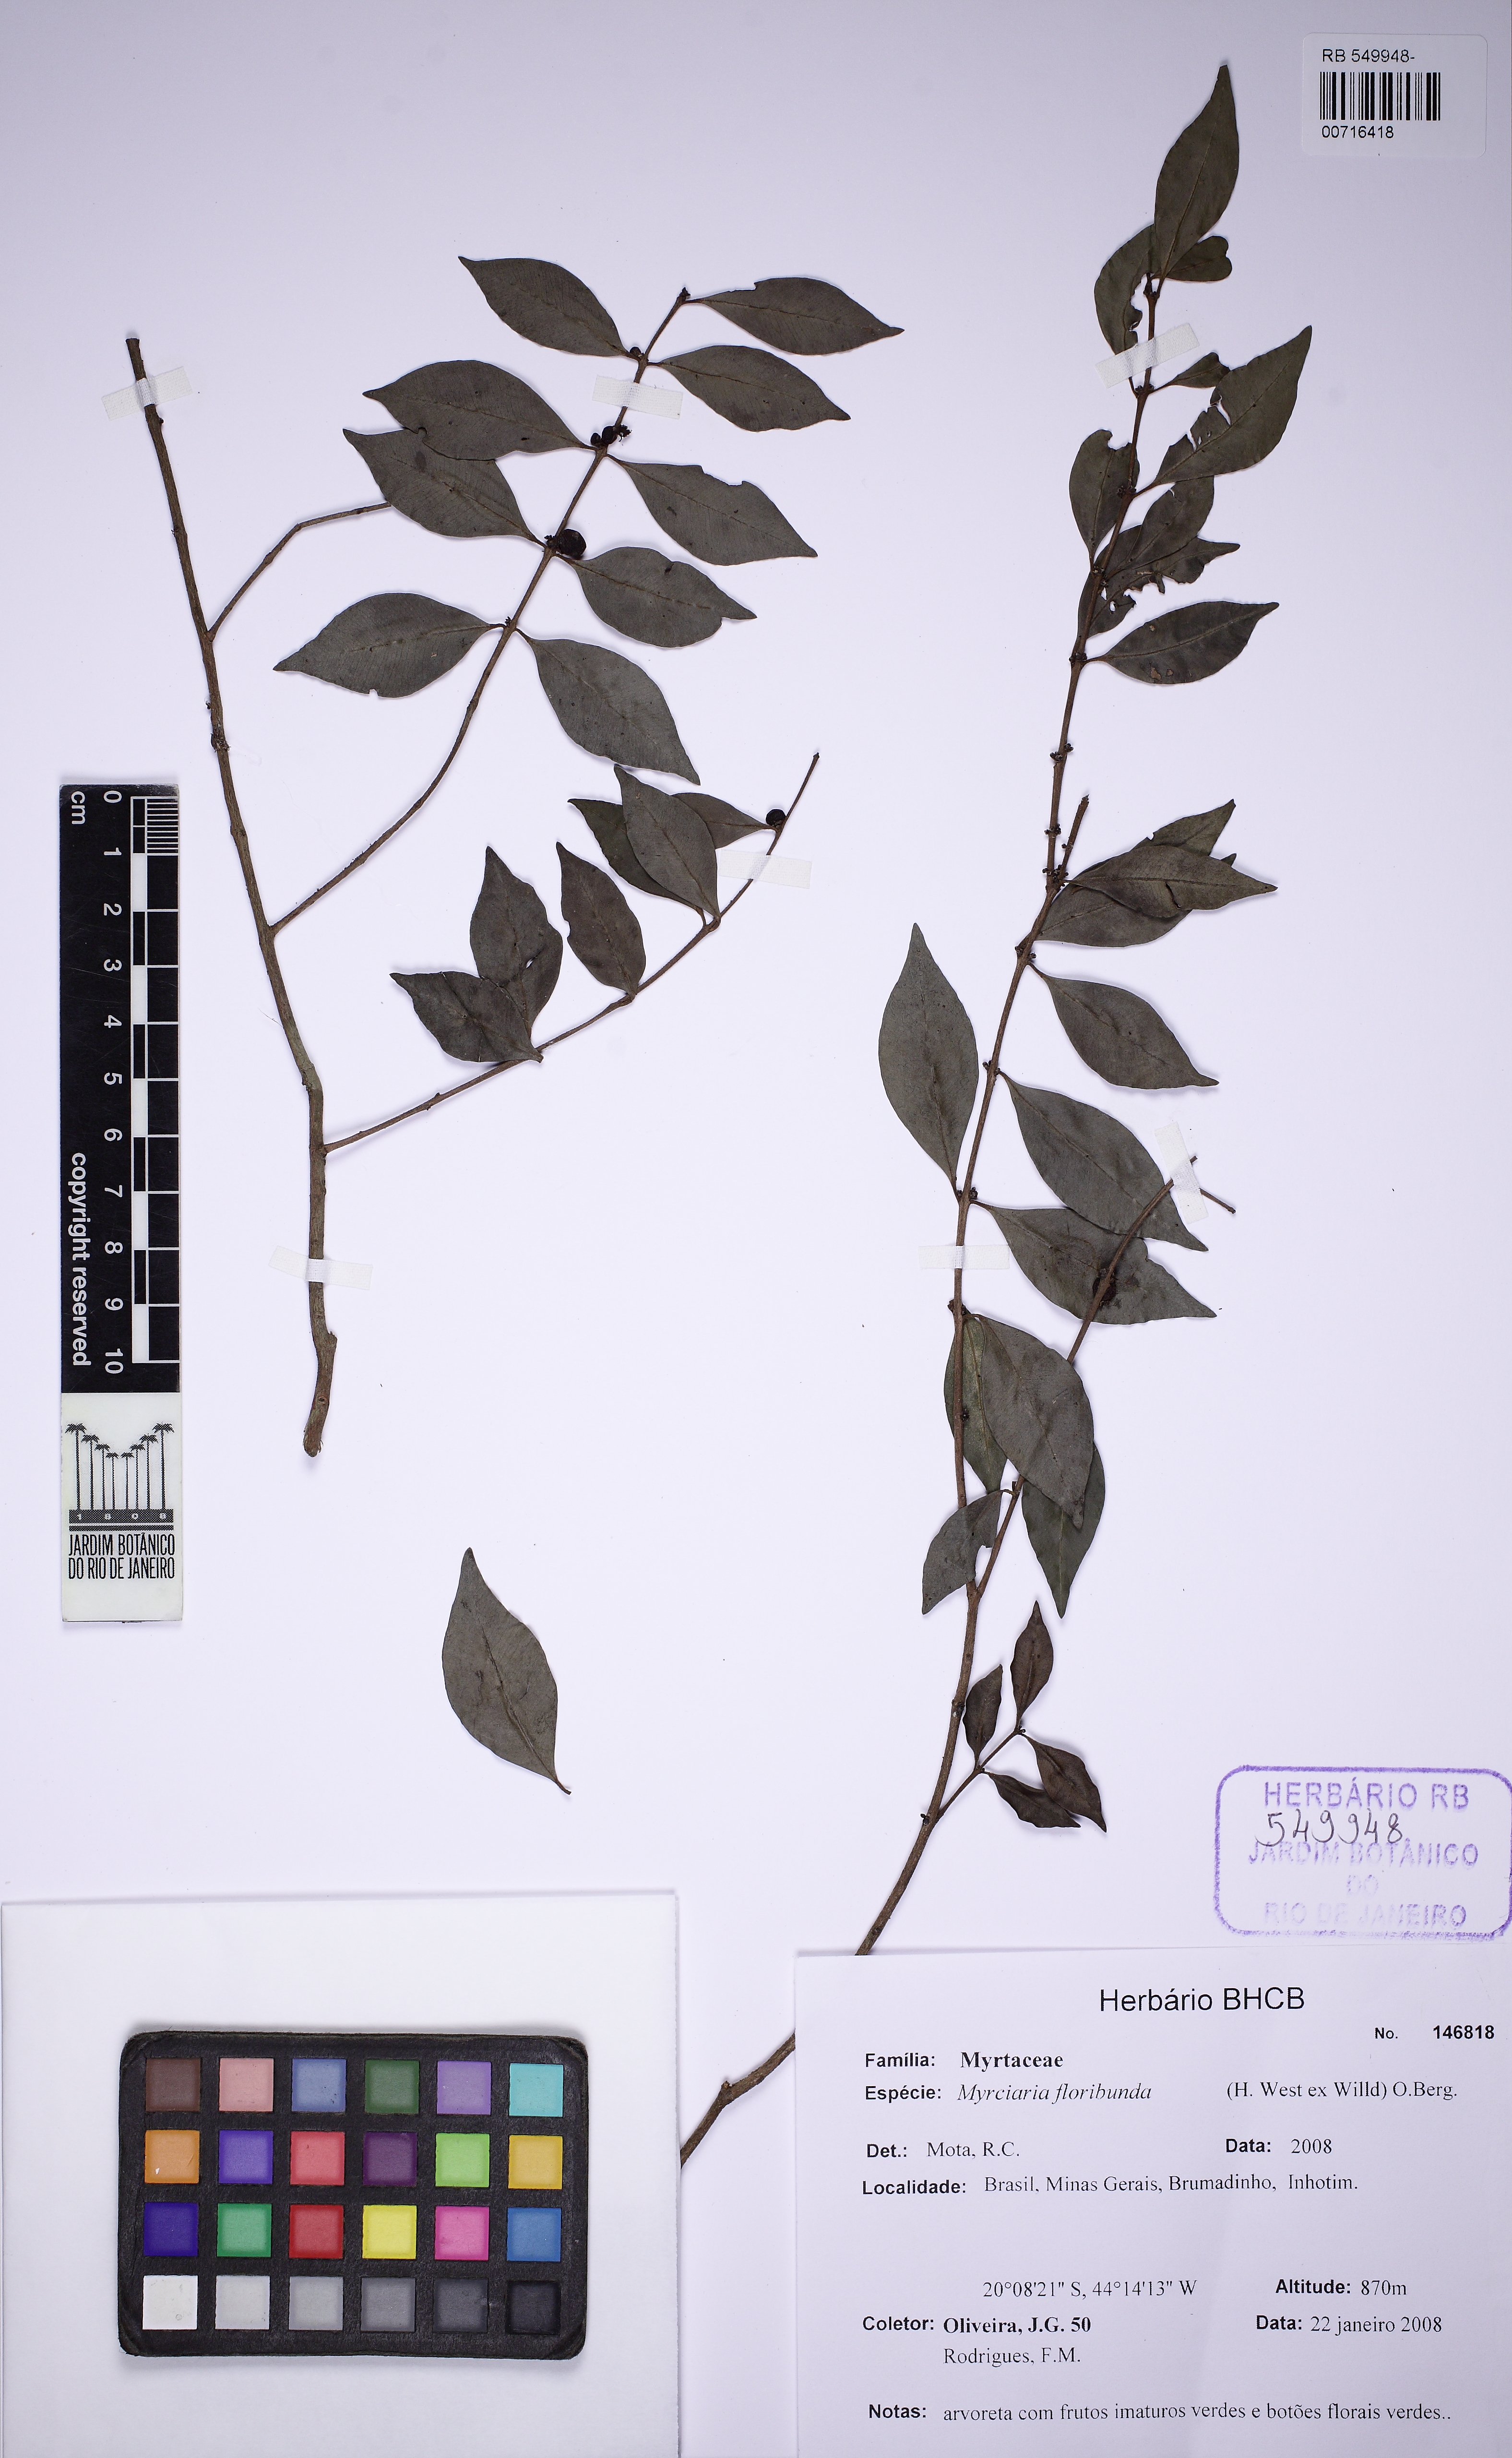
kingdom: Plantae
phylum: Tracheophyta
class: Magnoliopsida
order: Myrtales
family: Myrtaceae
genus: Myrciaria
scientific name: Myrciaria floribunda
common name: Guavaberry
